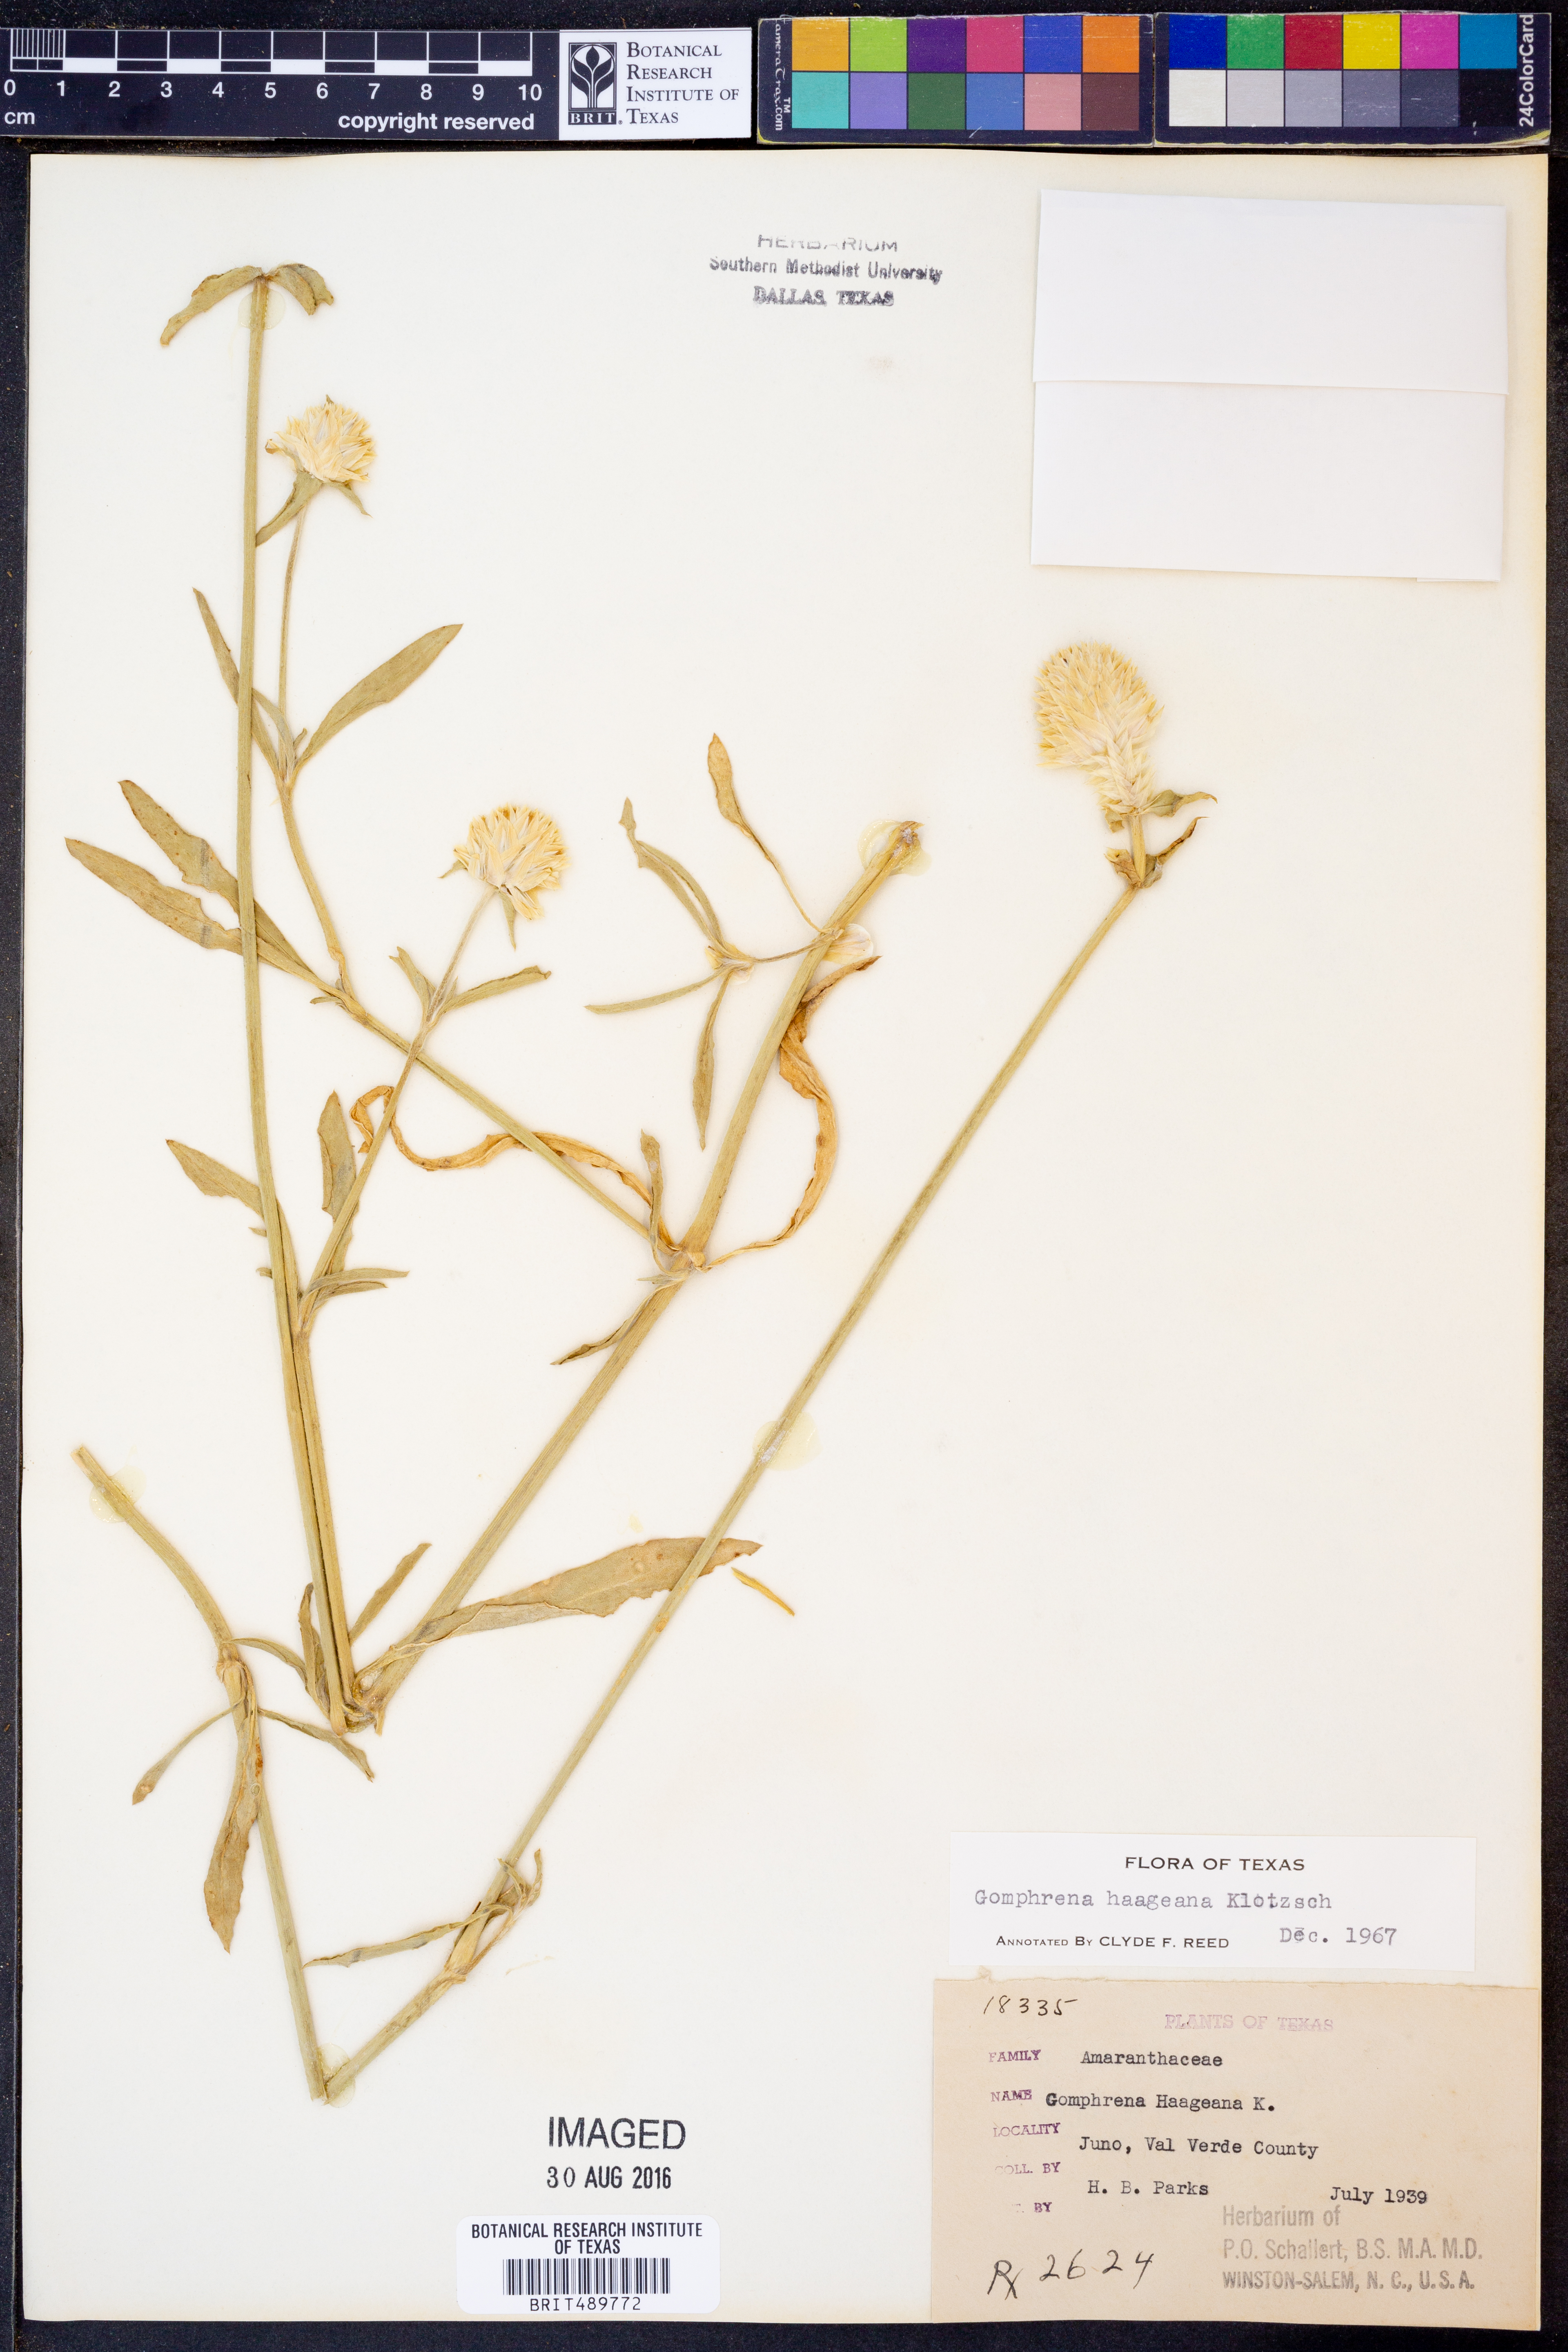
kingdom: Plantae
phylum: Tracheophyta
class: Magnoliopsida
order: Caryophyllales
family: Amaranthaceae
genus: Gomphrena
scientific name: Gomphrena haageana
